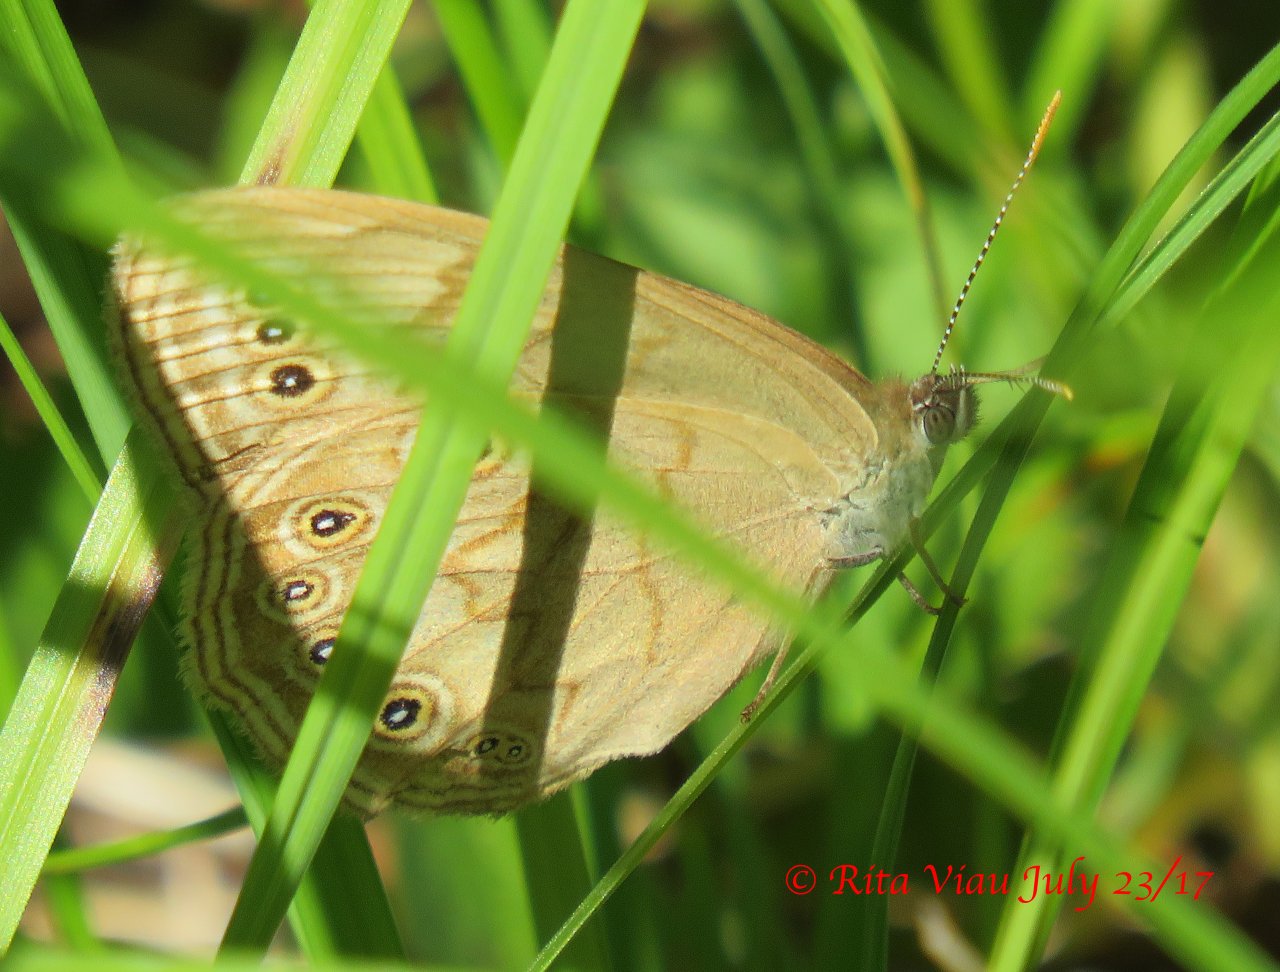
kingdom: Animalia
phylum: Arthropoda
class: Insecta
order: Lepidoptera
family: Nymphalidae
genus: Lethe
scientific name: Lethe eurydice
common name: Eyed Brown
